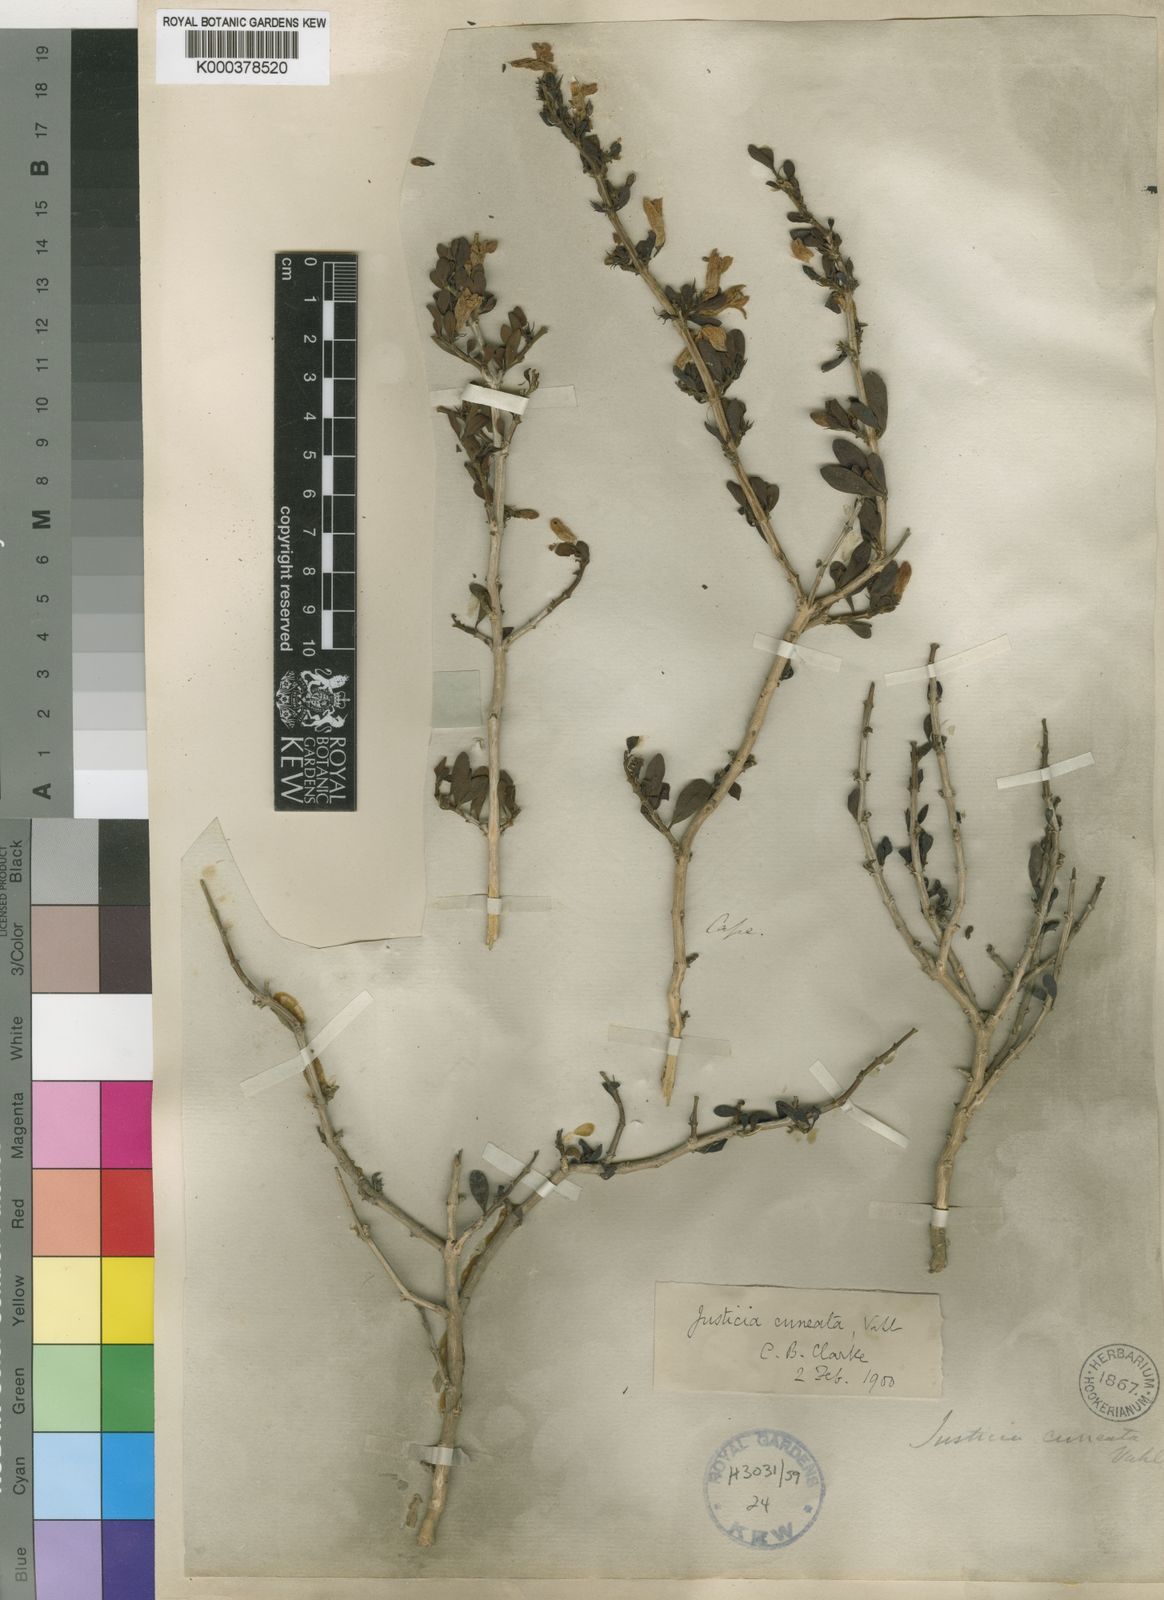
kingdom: Plantae
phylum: Tracheophyta
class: Magnoliopsida
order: Lamiales
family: Acanthaceae
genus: Justicia
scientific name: Justicia cuneata
